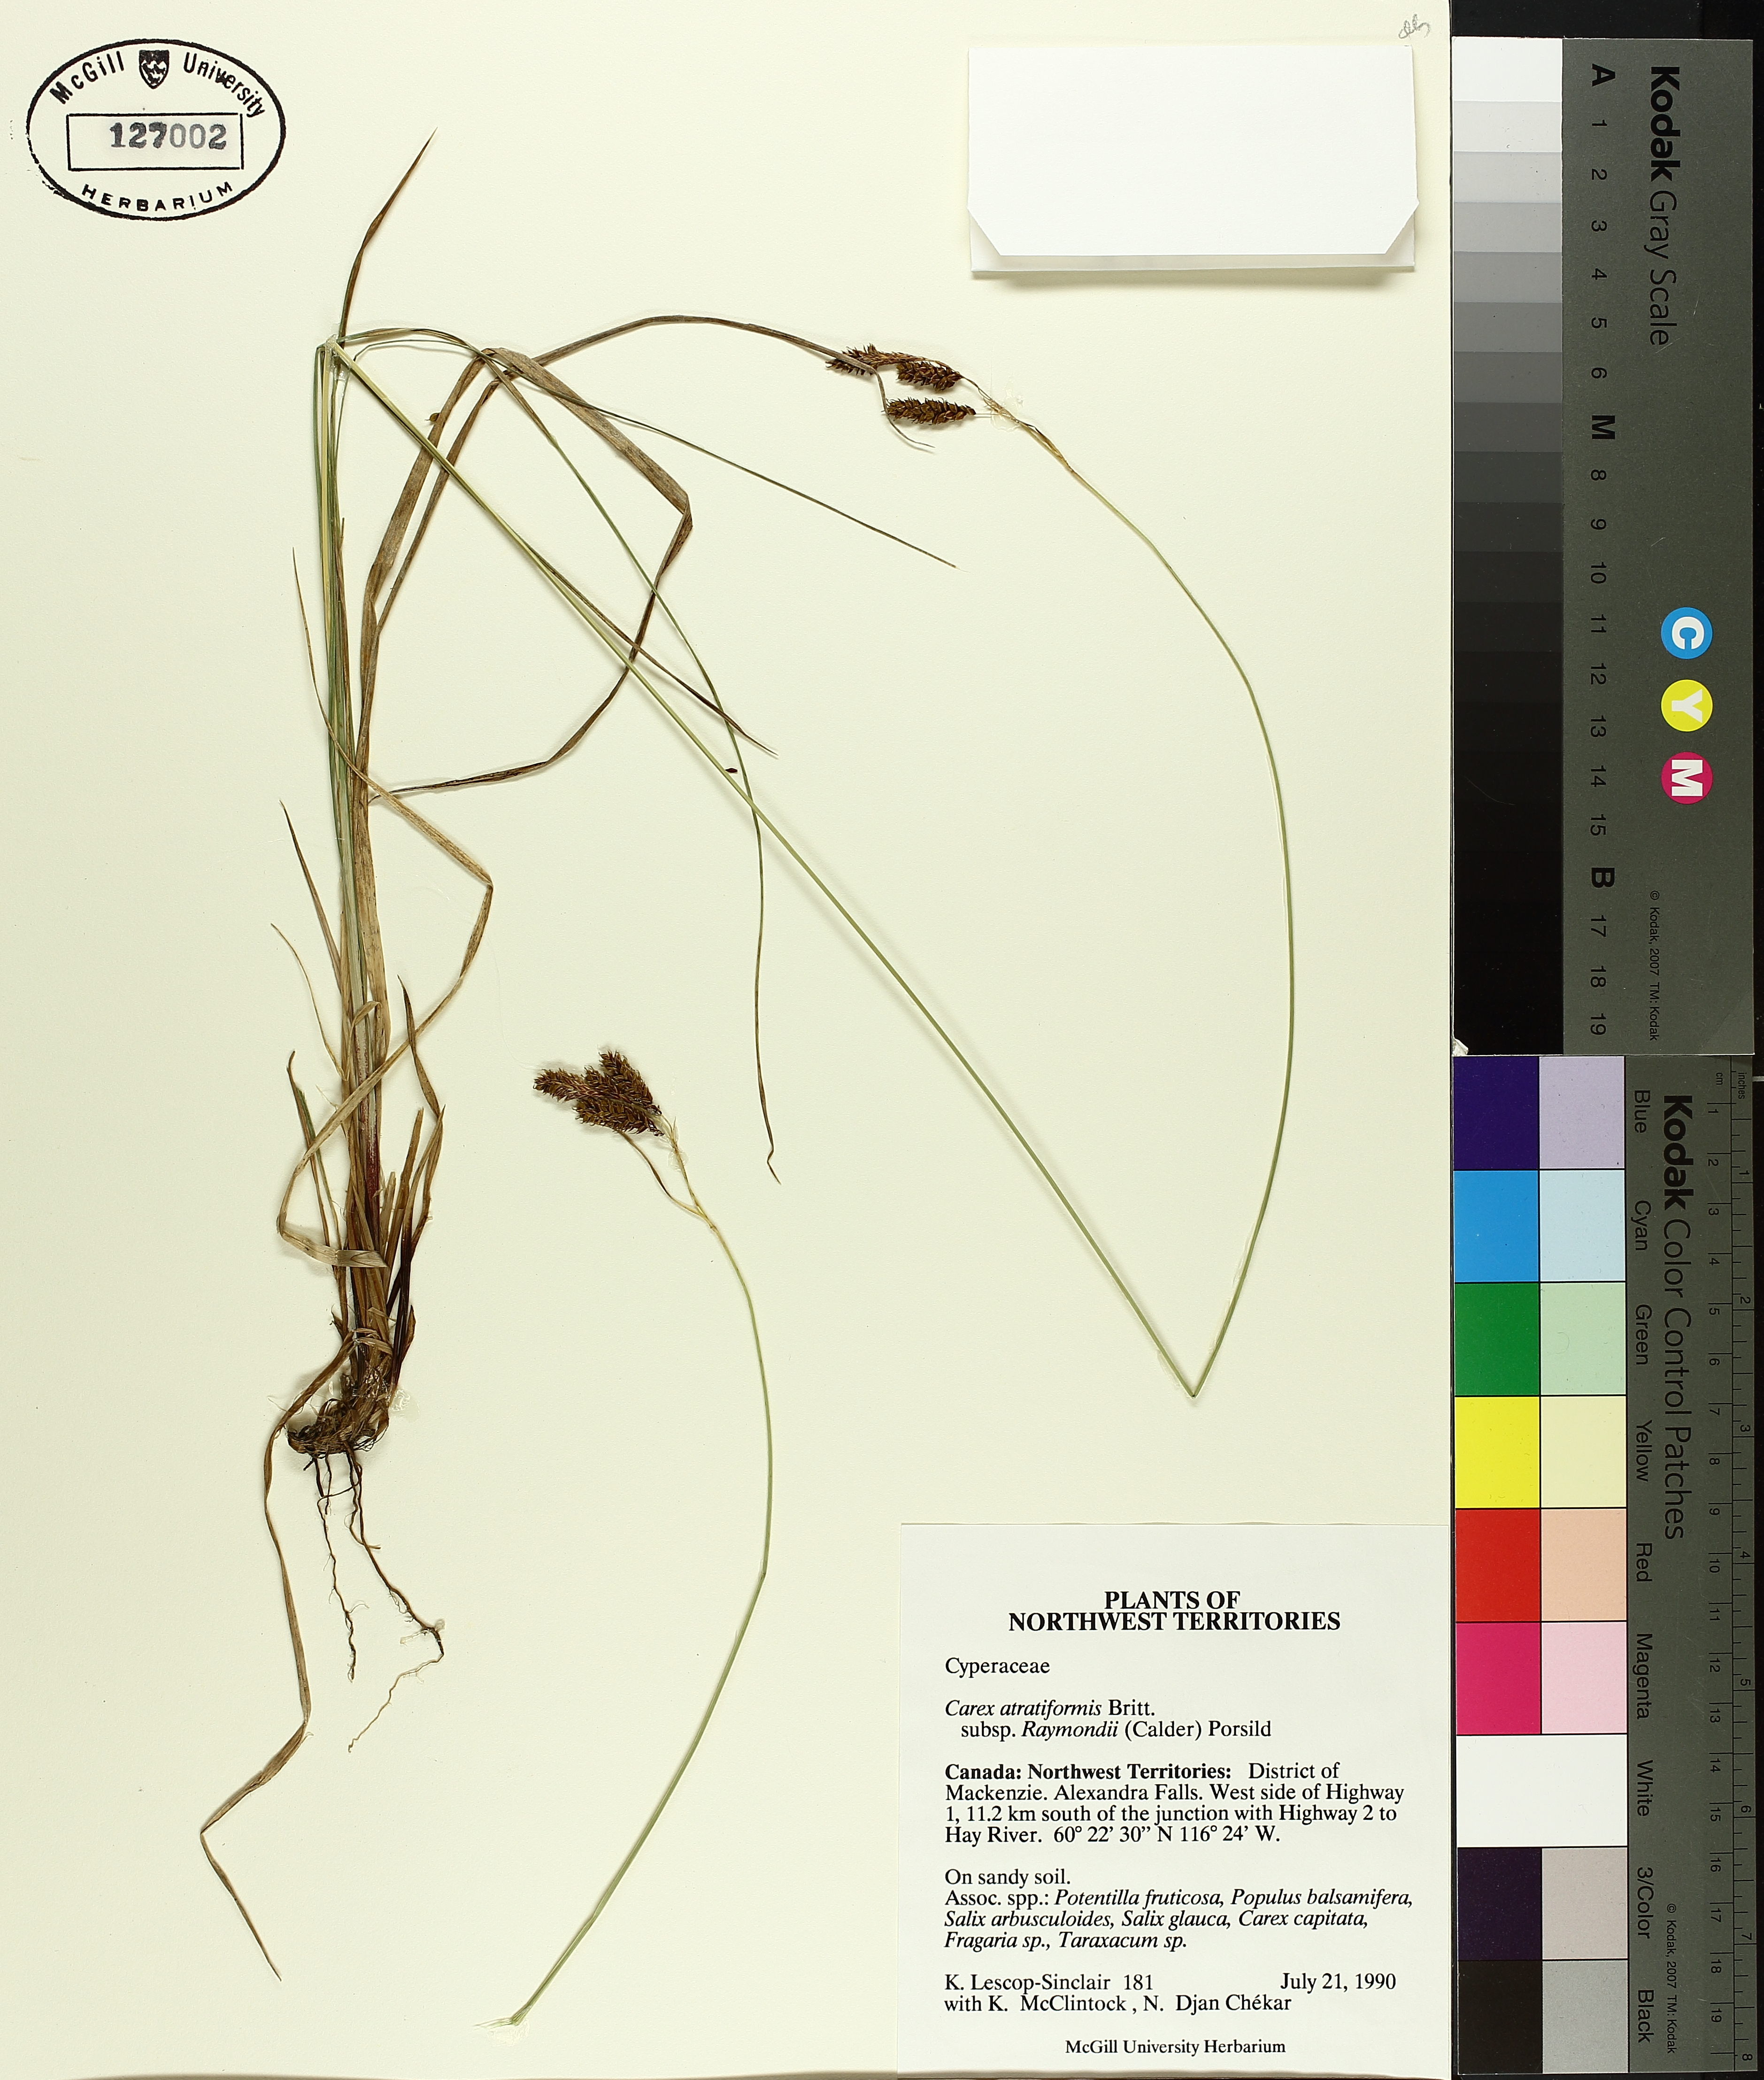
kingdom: Plantae
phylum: Tracheophyta
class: Liliopsida
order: Poales
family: Cyperaceae
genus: Carex
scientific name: Carex atratiformis
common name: Black sedge
